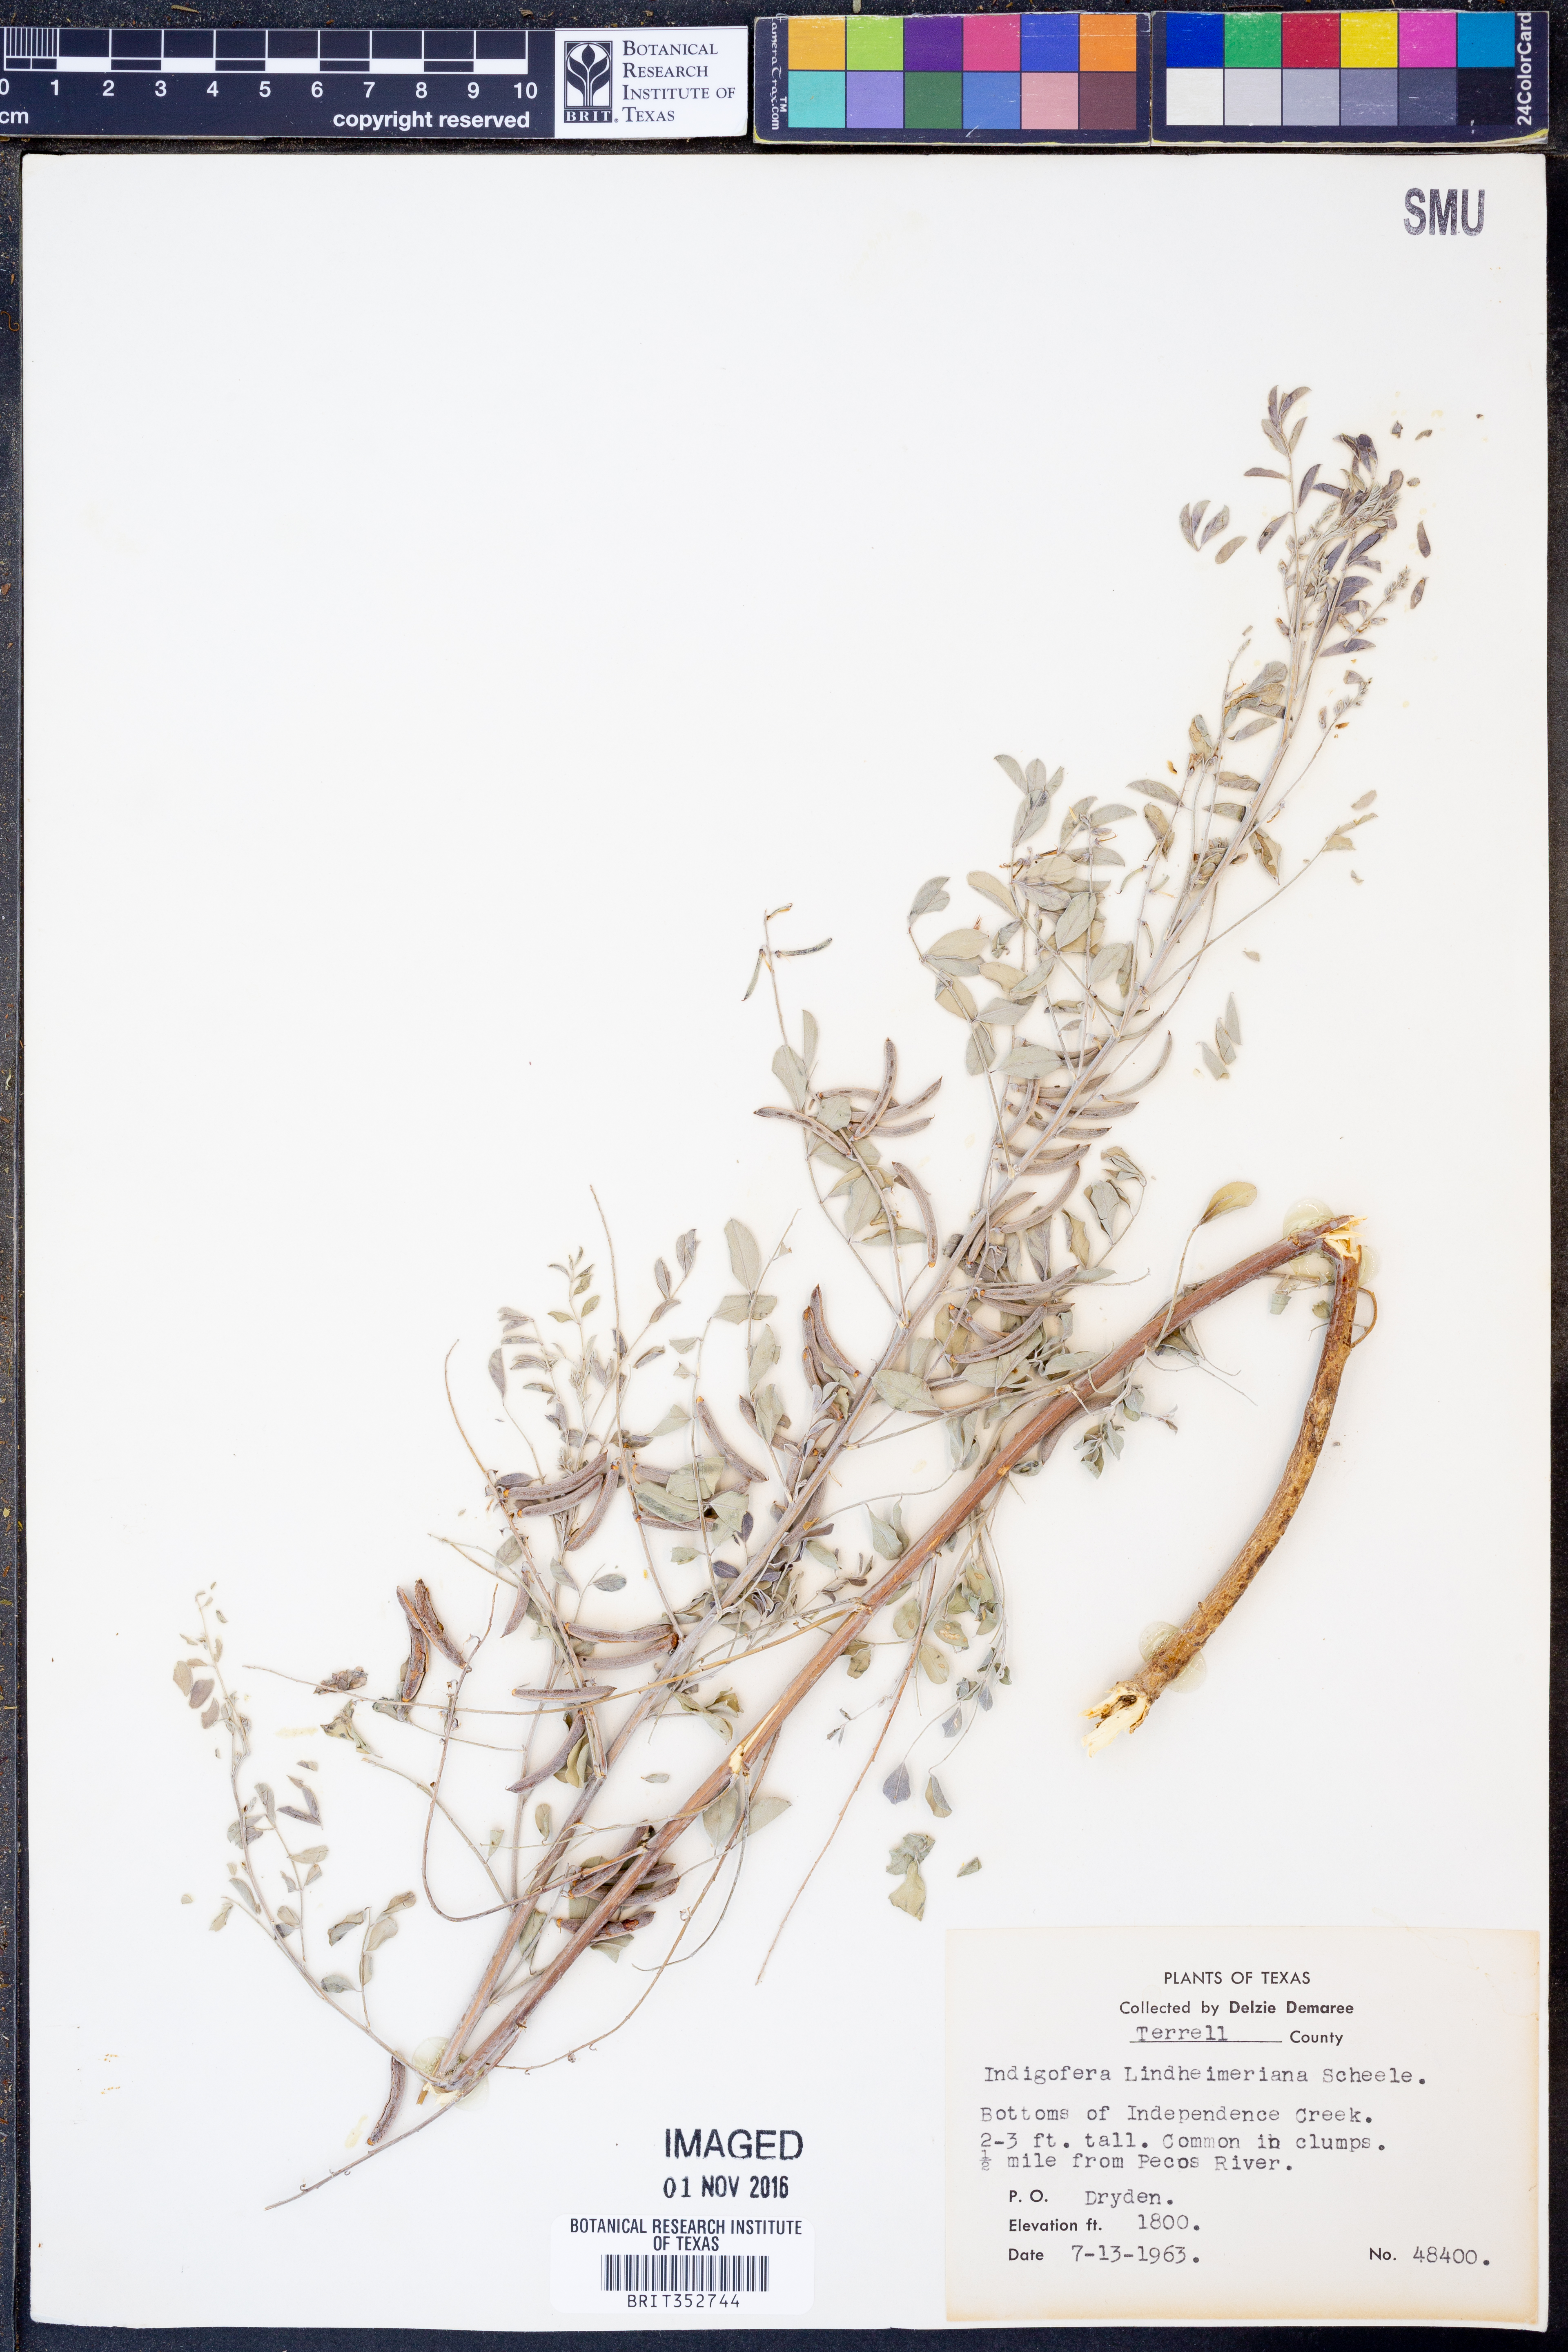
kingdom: Plantae
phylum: Tracheophyta
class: Magnoliopsida
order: Fabales
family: Fabaceae
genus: Indigofera
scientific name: Indigofera lindheimeriana
